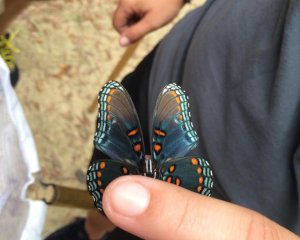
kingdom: Animalia
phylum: Arthropoda
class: Insecta
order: Lepidoptera
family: Nymphalidae
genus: Limenitis
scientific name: Limenitis astyanax
